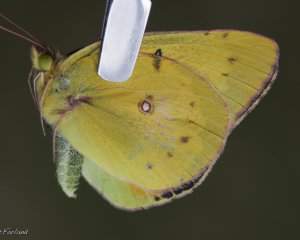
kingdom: Animalia
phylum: Arthropoda
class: Insecta
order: Lepidoptera
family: Pieridae
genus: Colias
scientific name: Colias eurytheme
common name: Orange Sulphur
